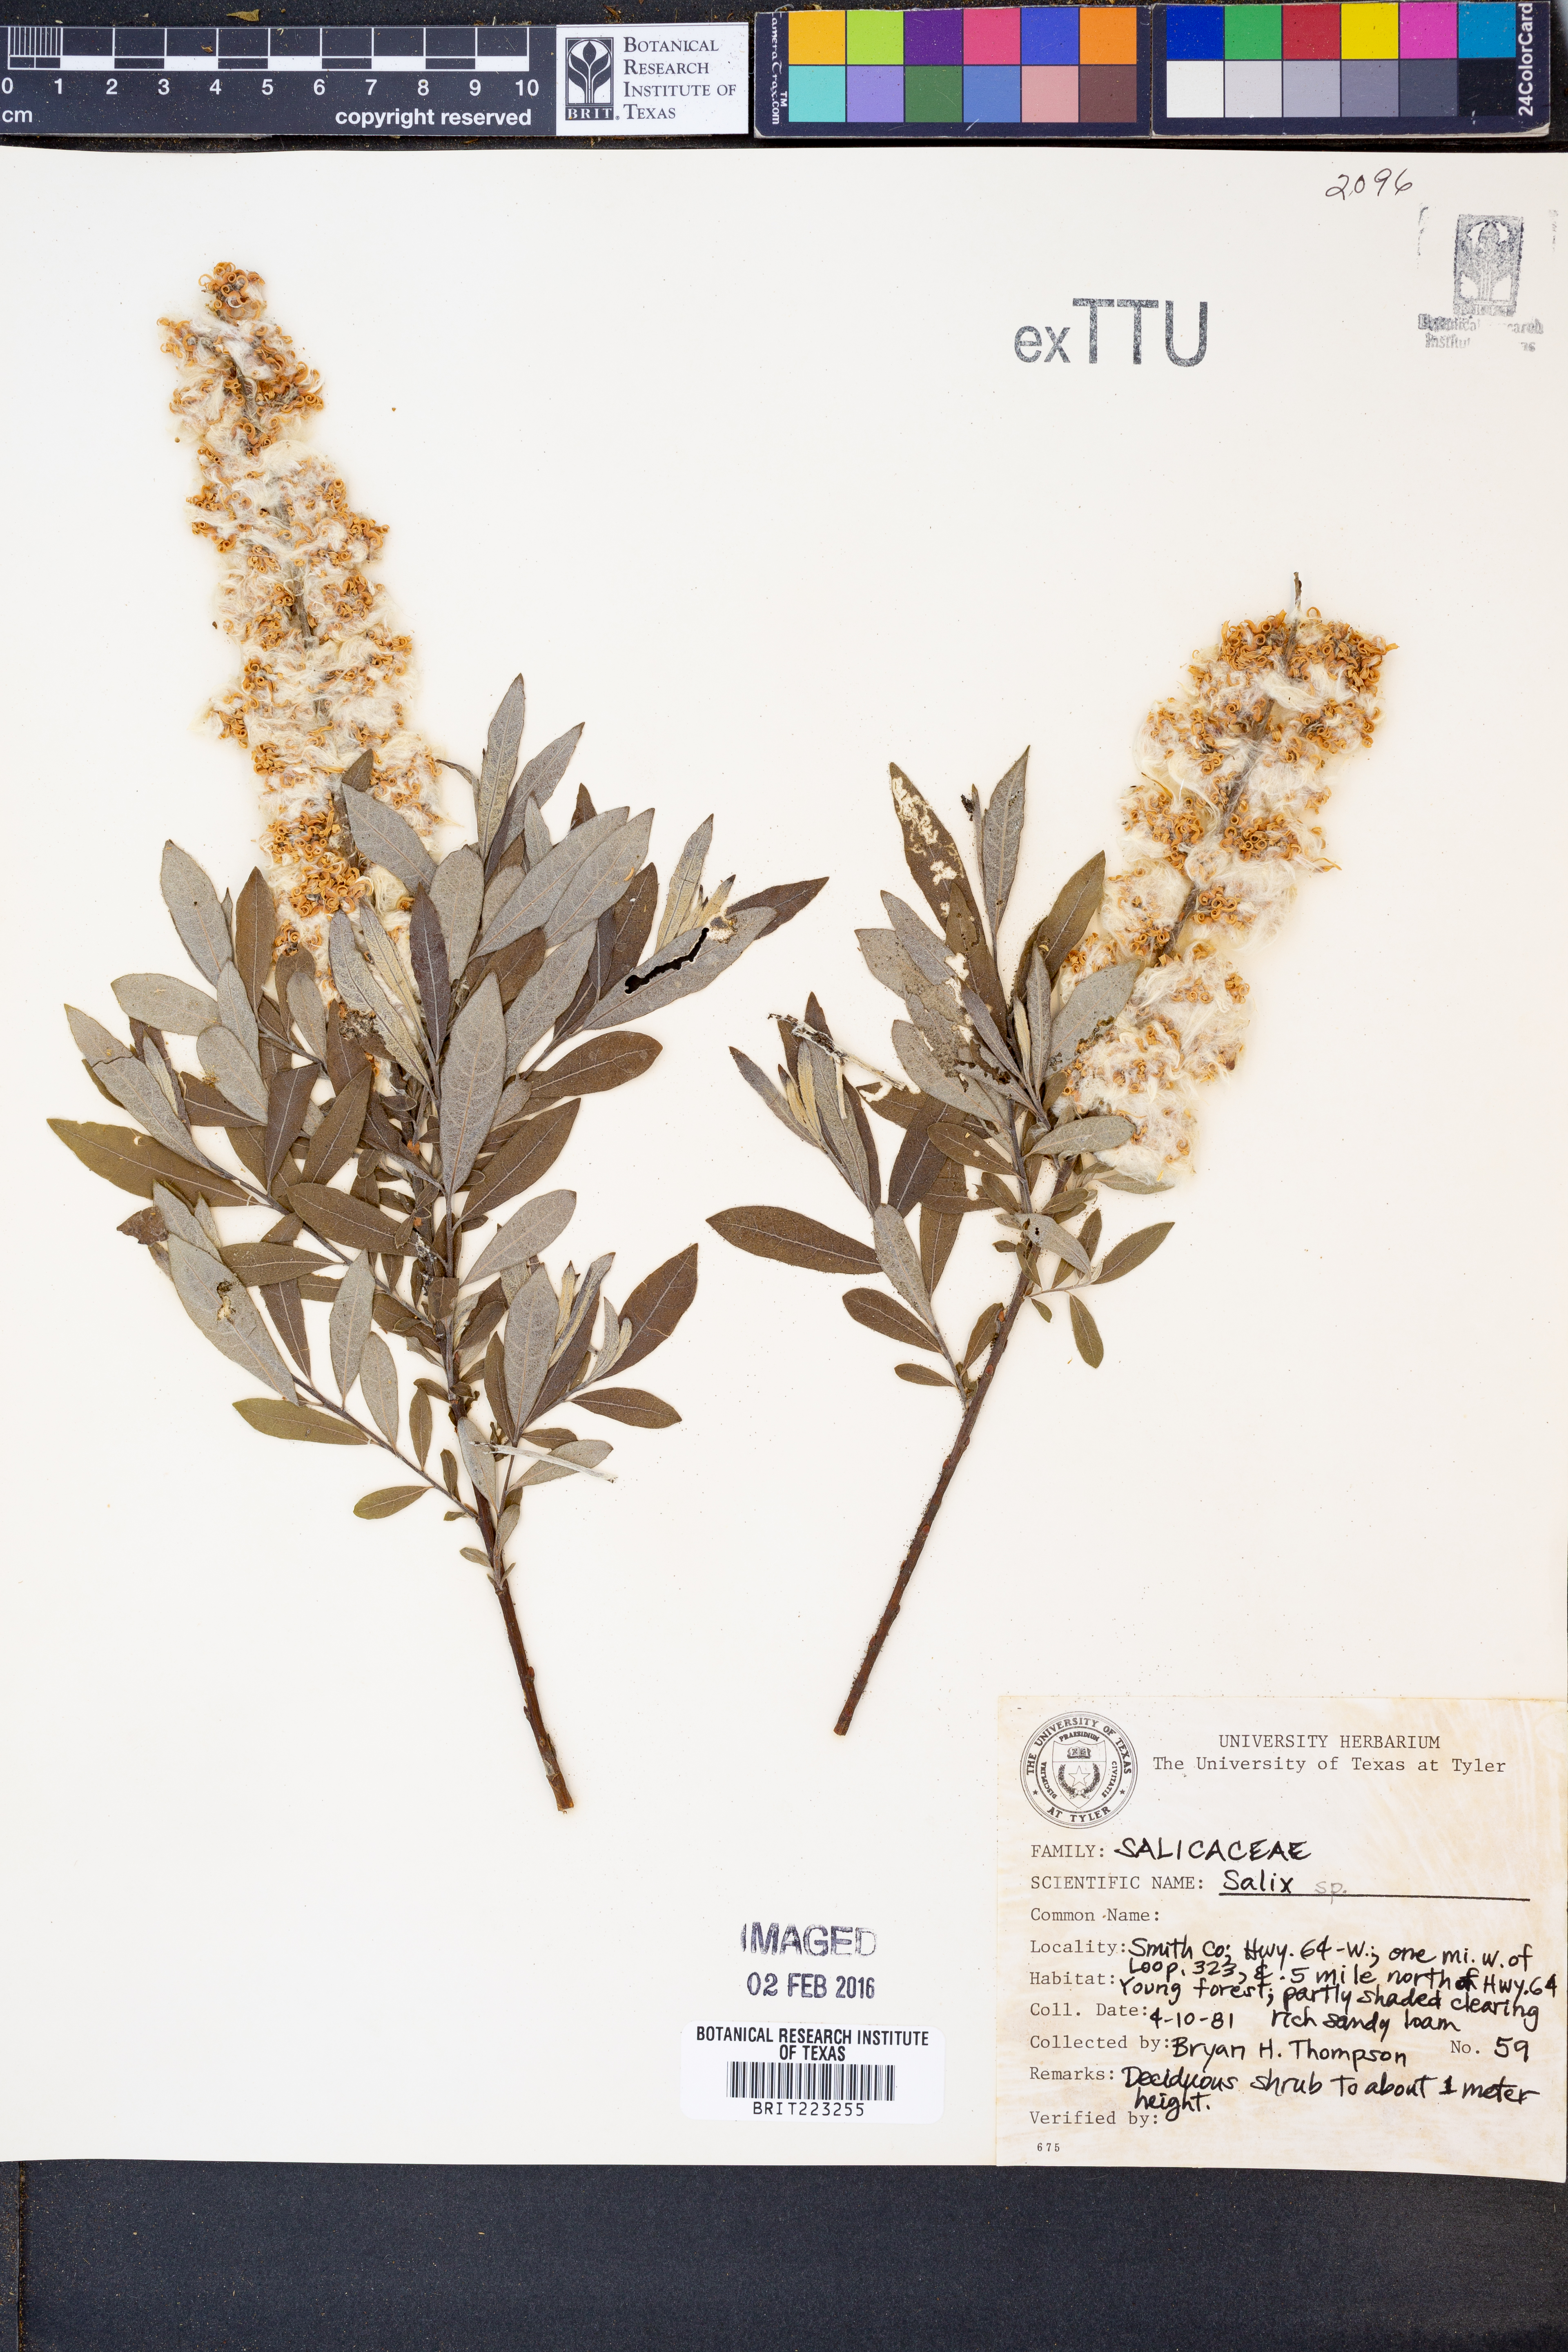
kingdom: Plantae
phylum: Tracheophyta
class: Magnoliopsida
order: Malpighiales
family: Salicaceae
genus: Salix
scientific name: Salix
